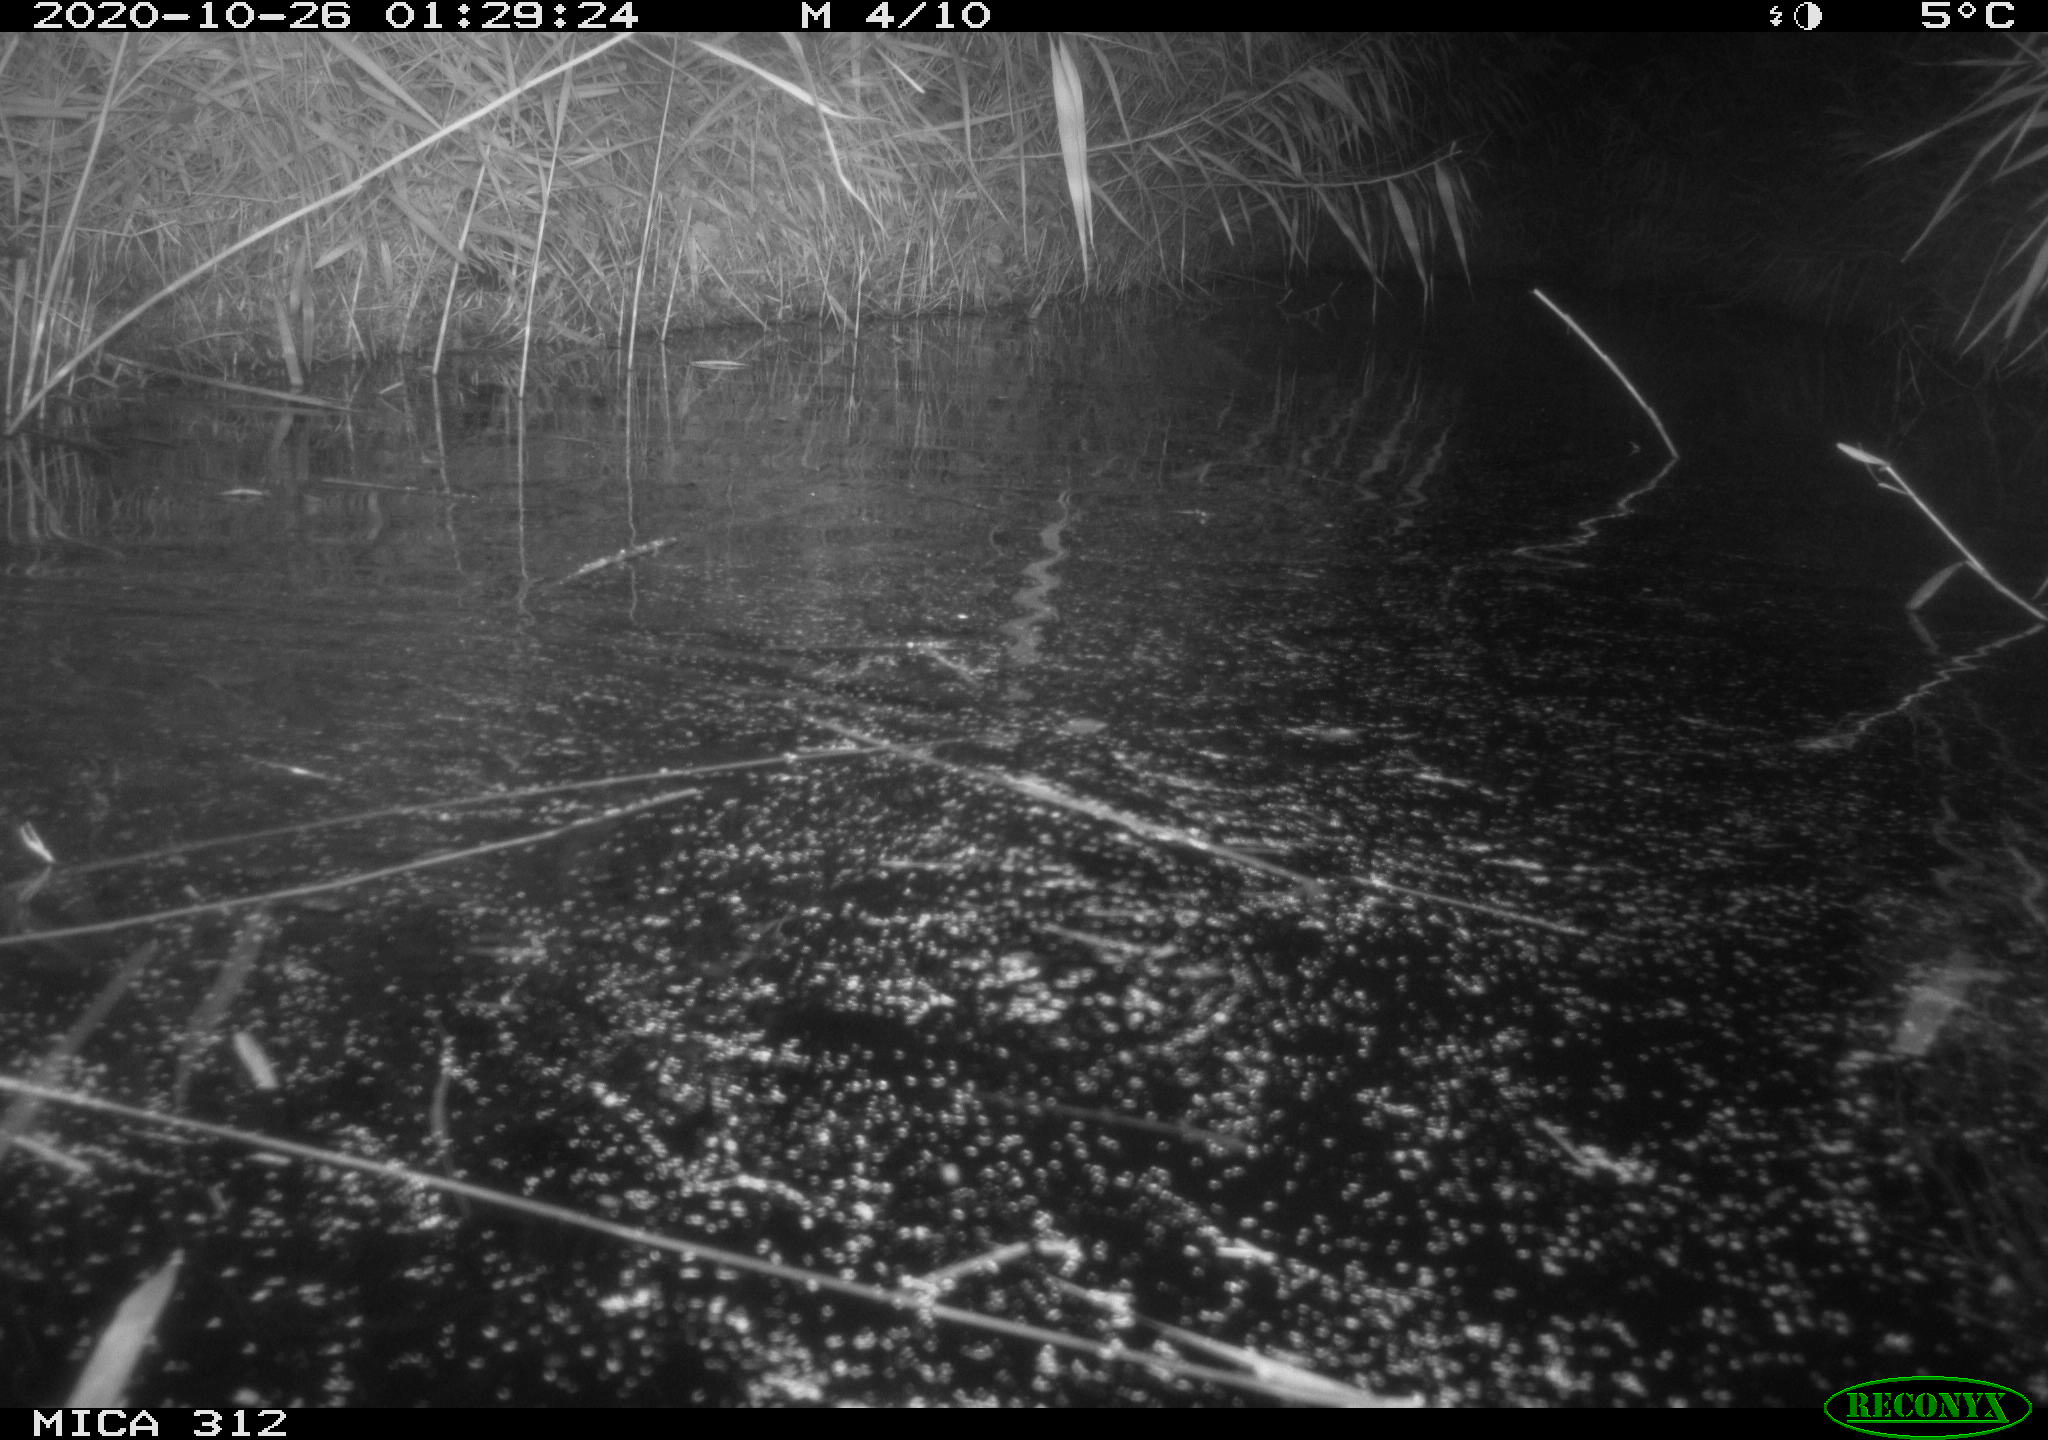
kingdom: Animalia
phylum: Chordata
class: Mammalia
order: Rodentia
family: Muridae
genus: Rattus
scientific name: Rattus norvegicus
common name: Brown rat
